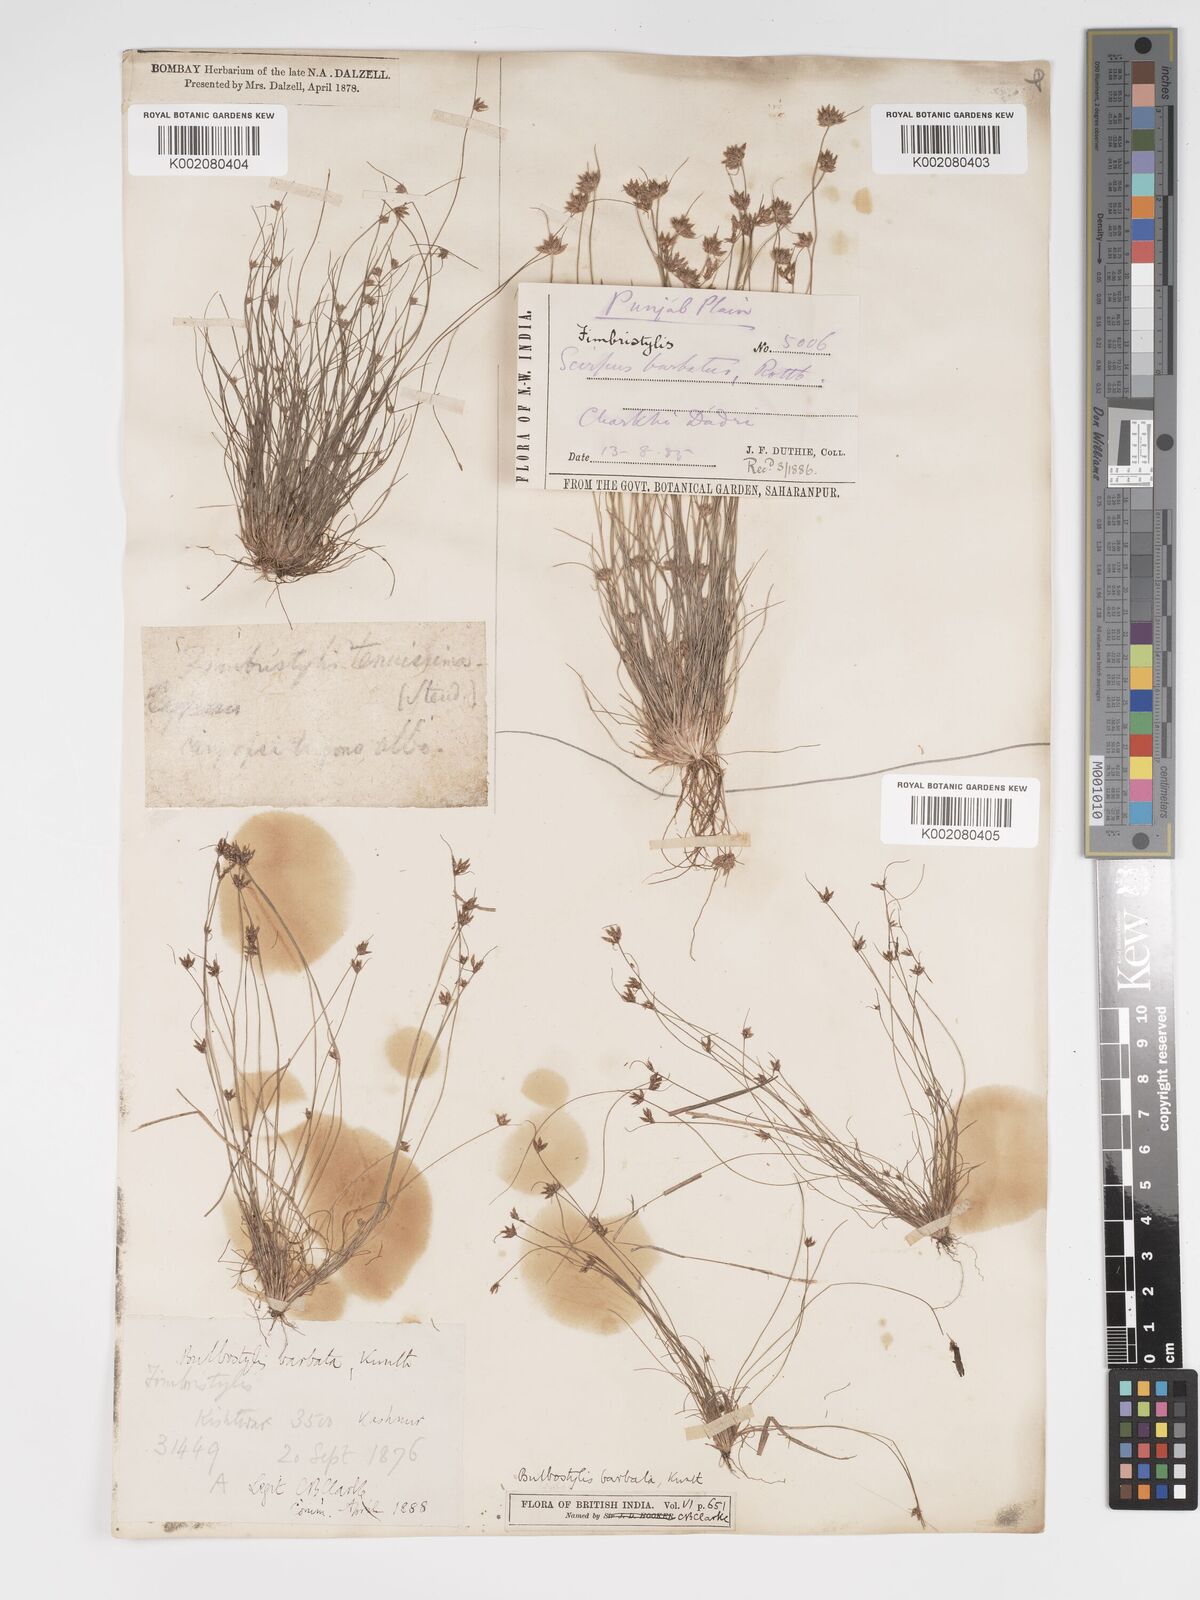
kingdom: Plantae
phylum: Tracheophyta
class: Liliopsida
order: Poales
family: Cyperaceae
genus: Bulbostylis
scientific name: Bulbostylis barbata
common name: Watergrass
